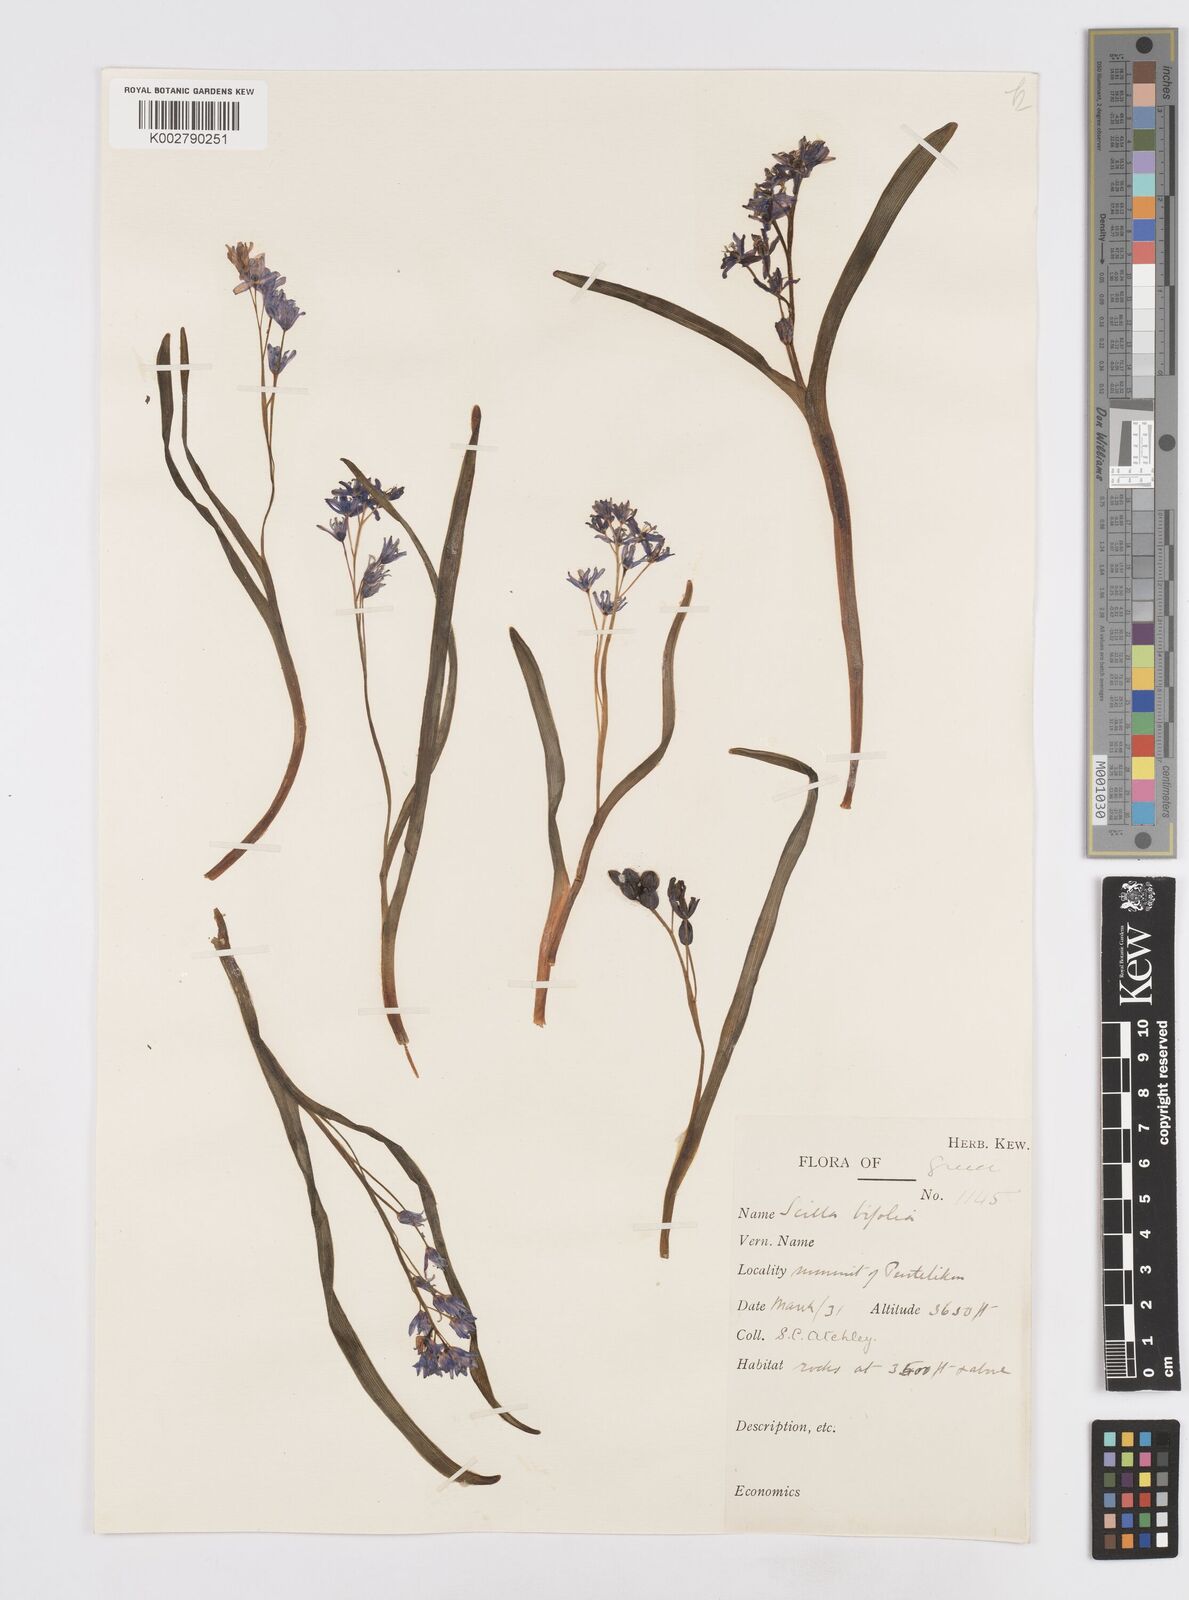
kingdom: Plantae
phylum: Tracheophyta
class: Liliopsida
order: Asparagales
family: Asparagaceae
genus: Scilla
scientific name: Scilla bifolia
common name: Alpine squill
